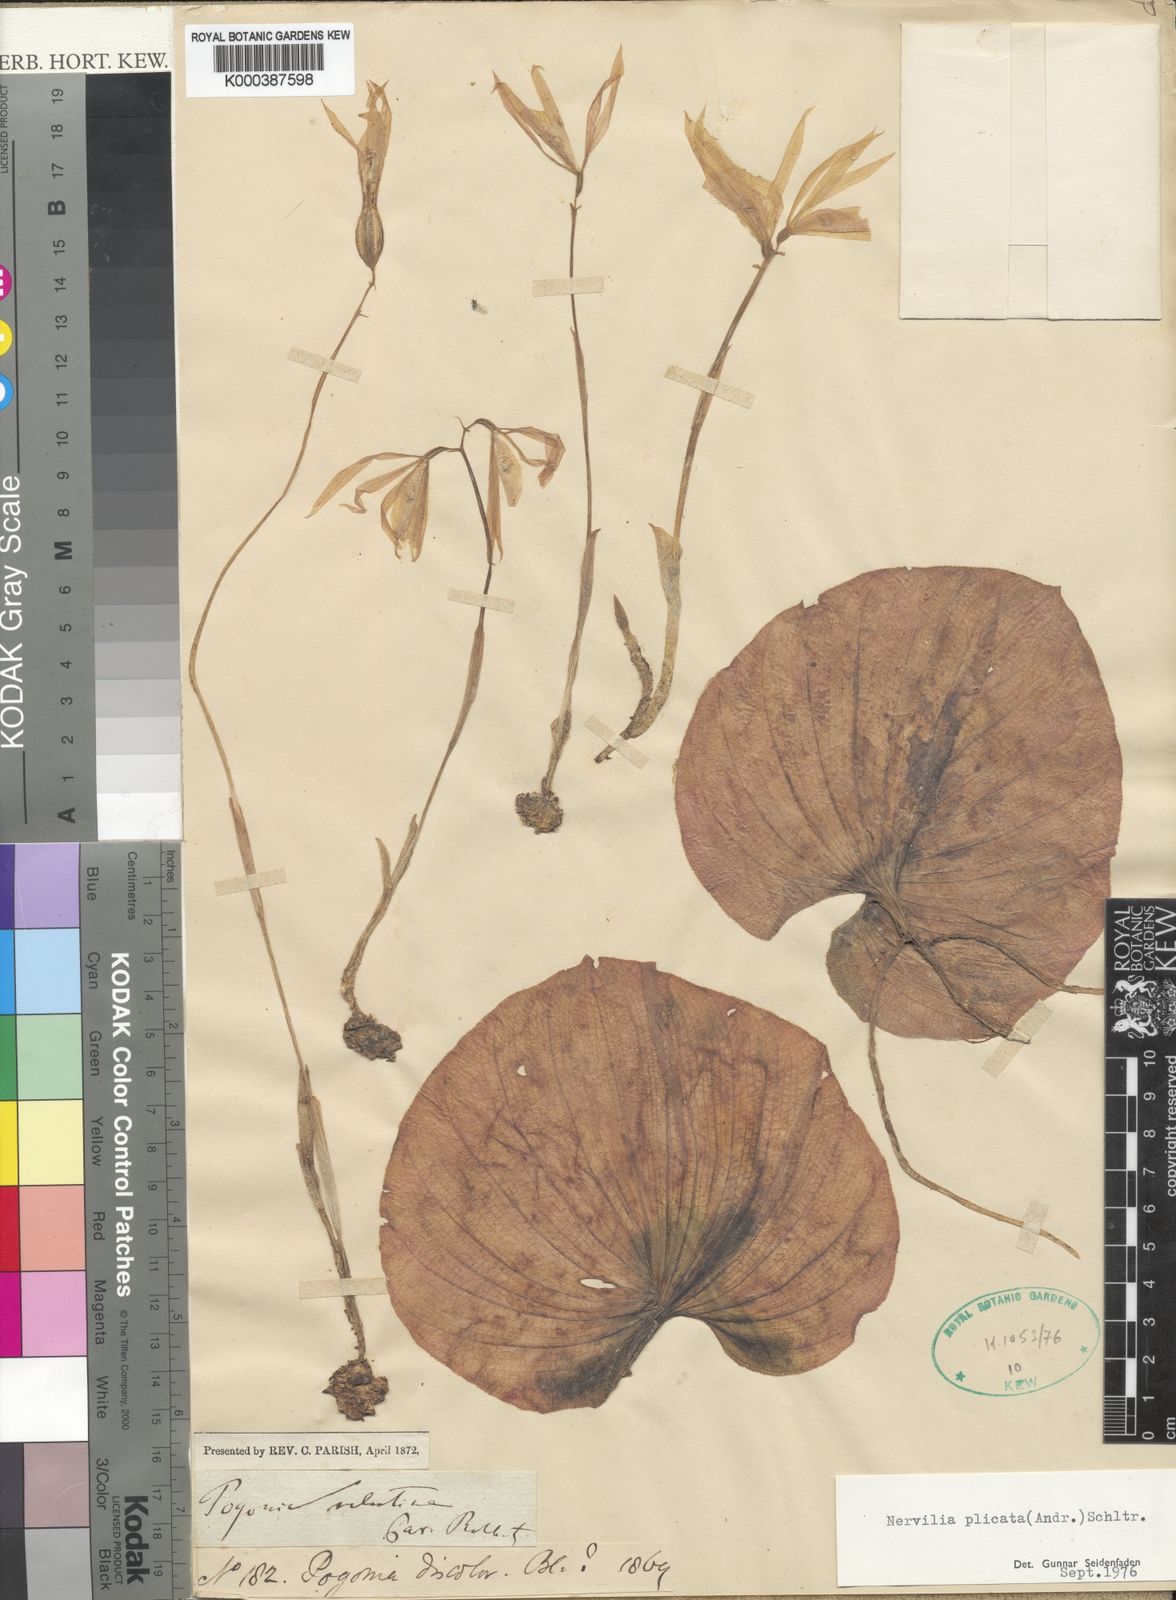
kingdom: Plantae
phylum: Tracheophyta
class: Liliopsida
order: Asparagales
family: Orchidaceae
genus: Nervilia
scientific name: Nervilia plicata
